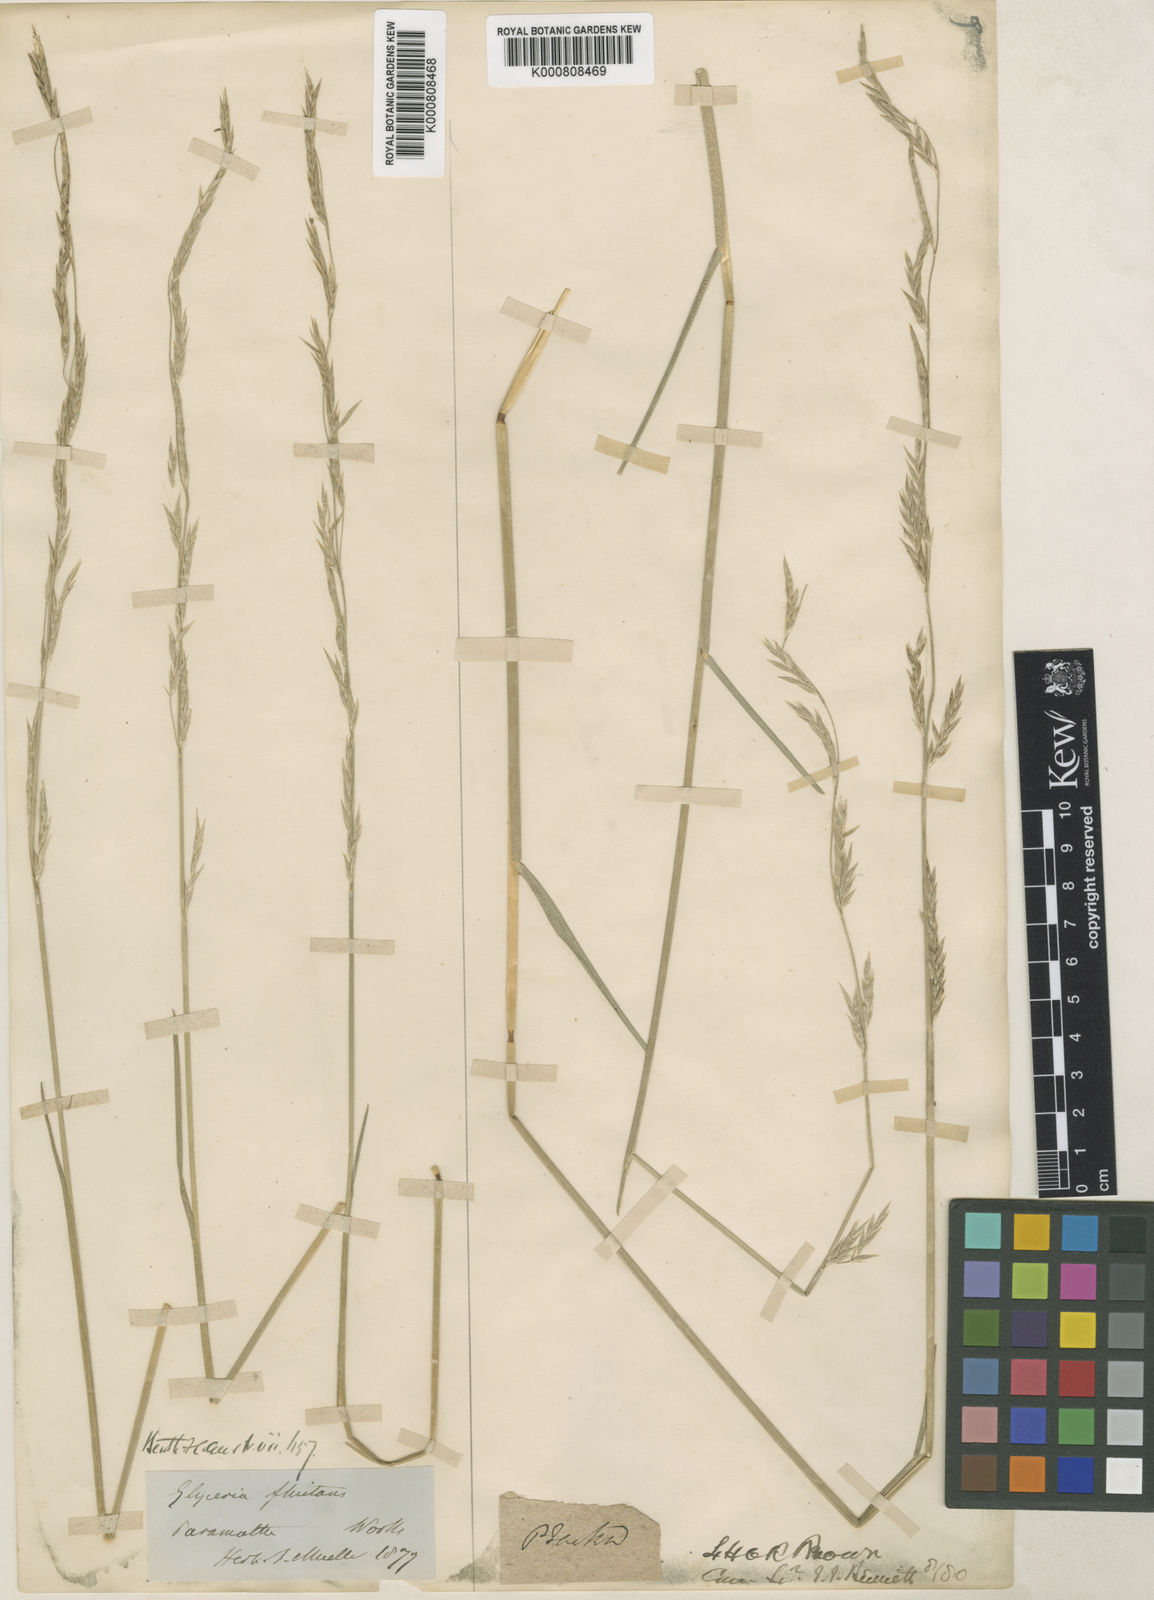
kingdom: Plantae
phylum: Tracheophyta
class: Liliopsida
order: Poales
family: Poaceae
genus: Glyceria
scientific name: Glyceria australis
